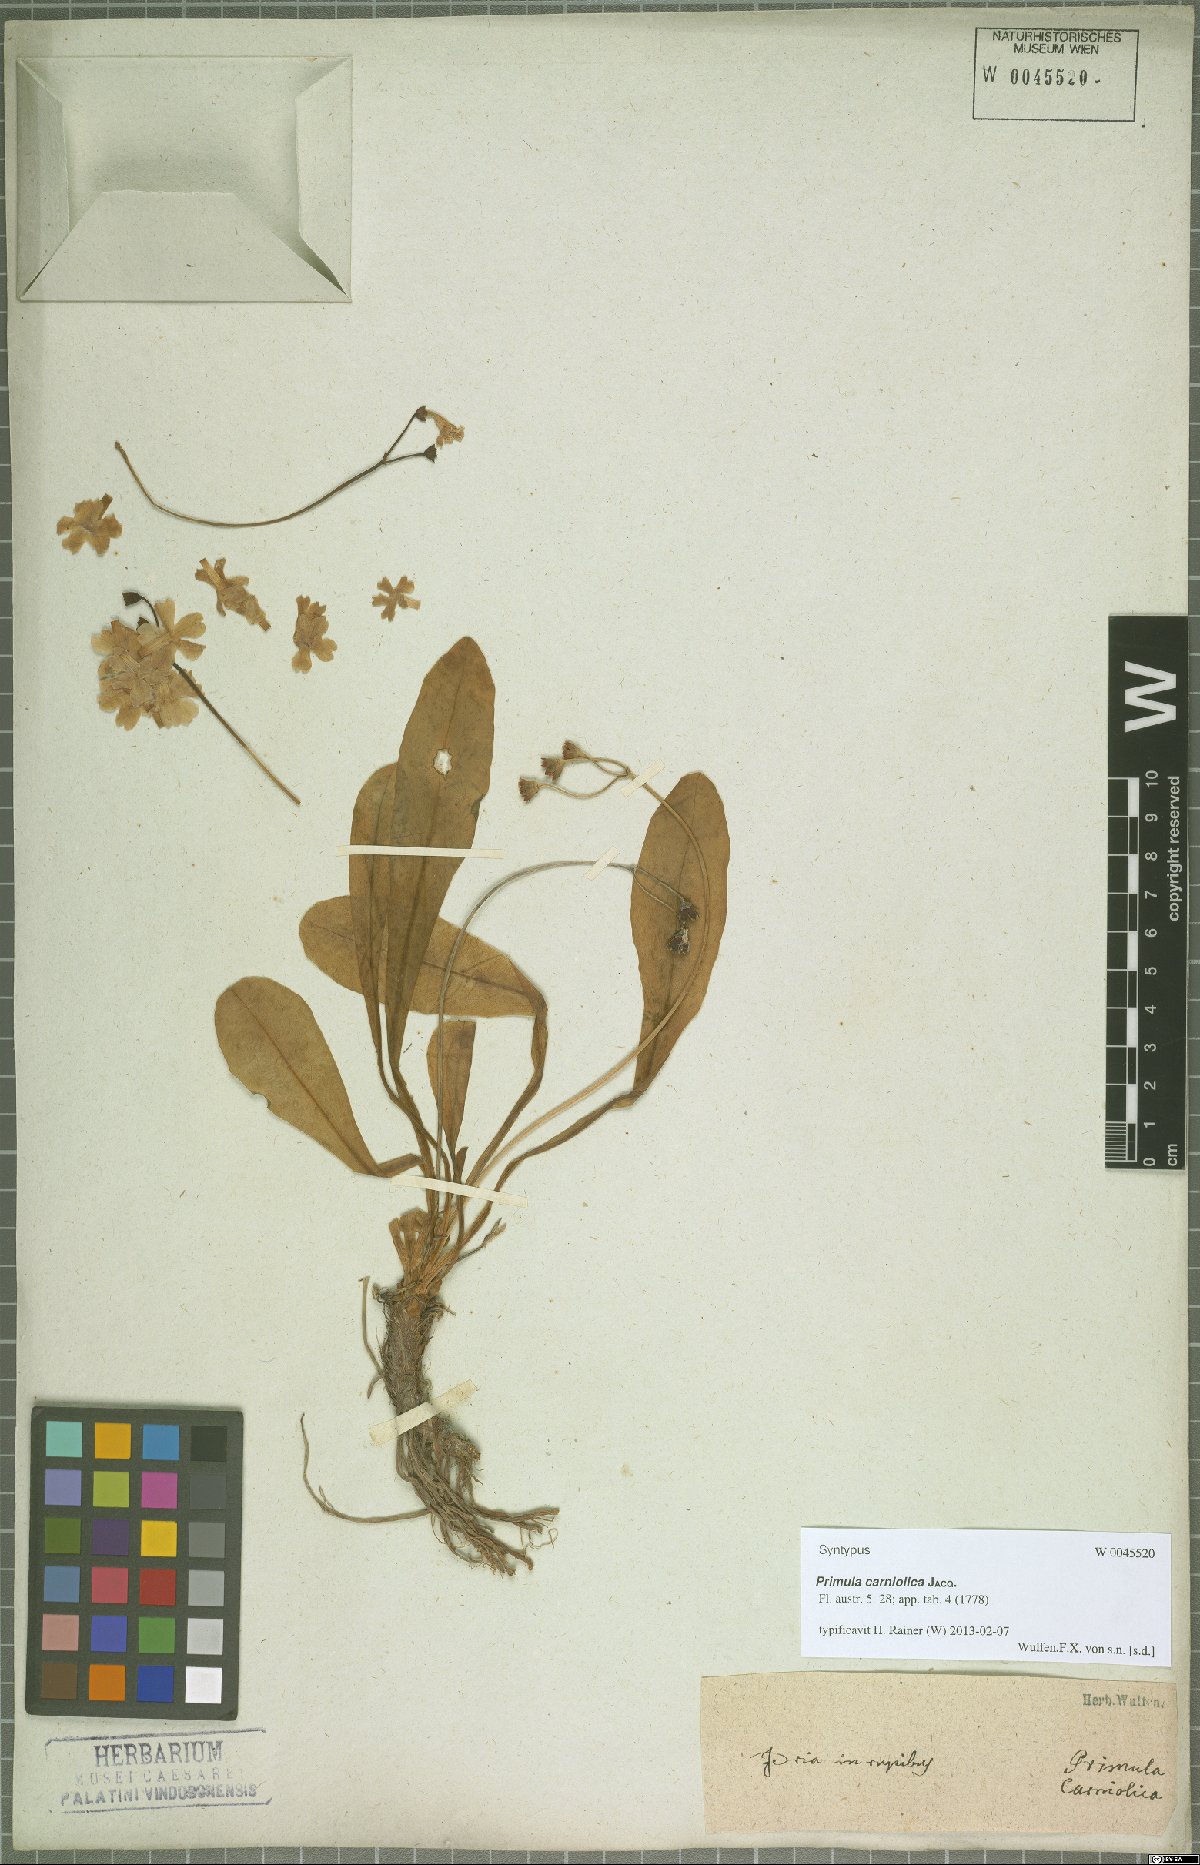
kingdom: Plantae
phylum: Tracheophyta
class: Magnoliopsida
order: Ericales
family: Primulaceae
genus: Primula
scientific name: Primula carniolica
